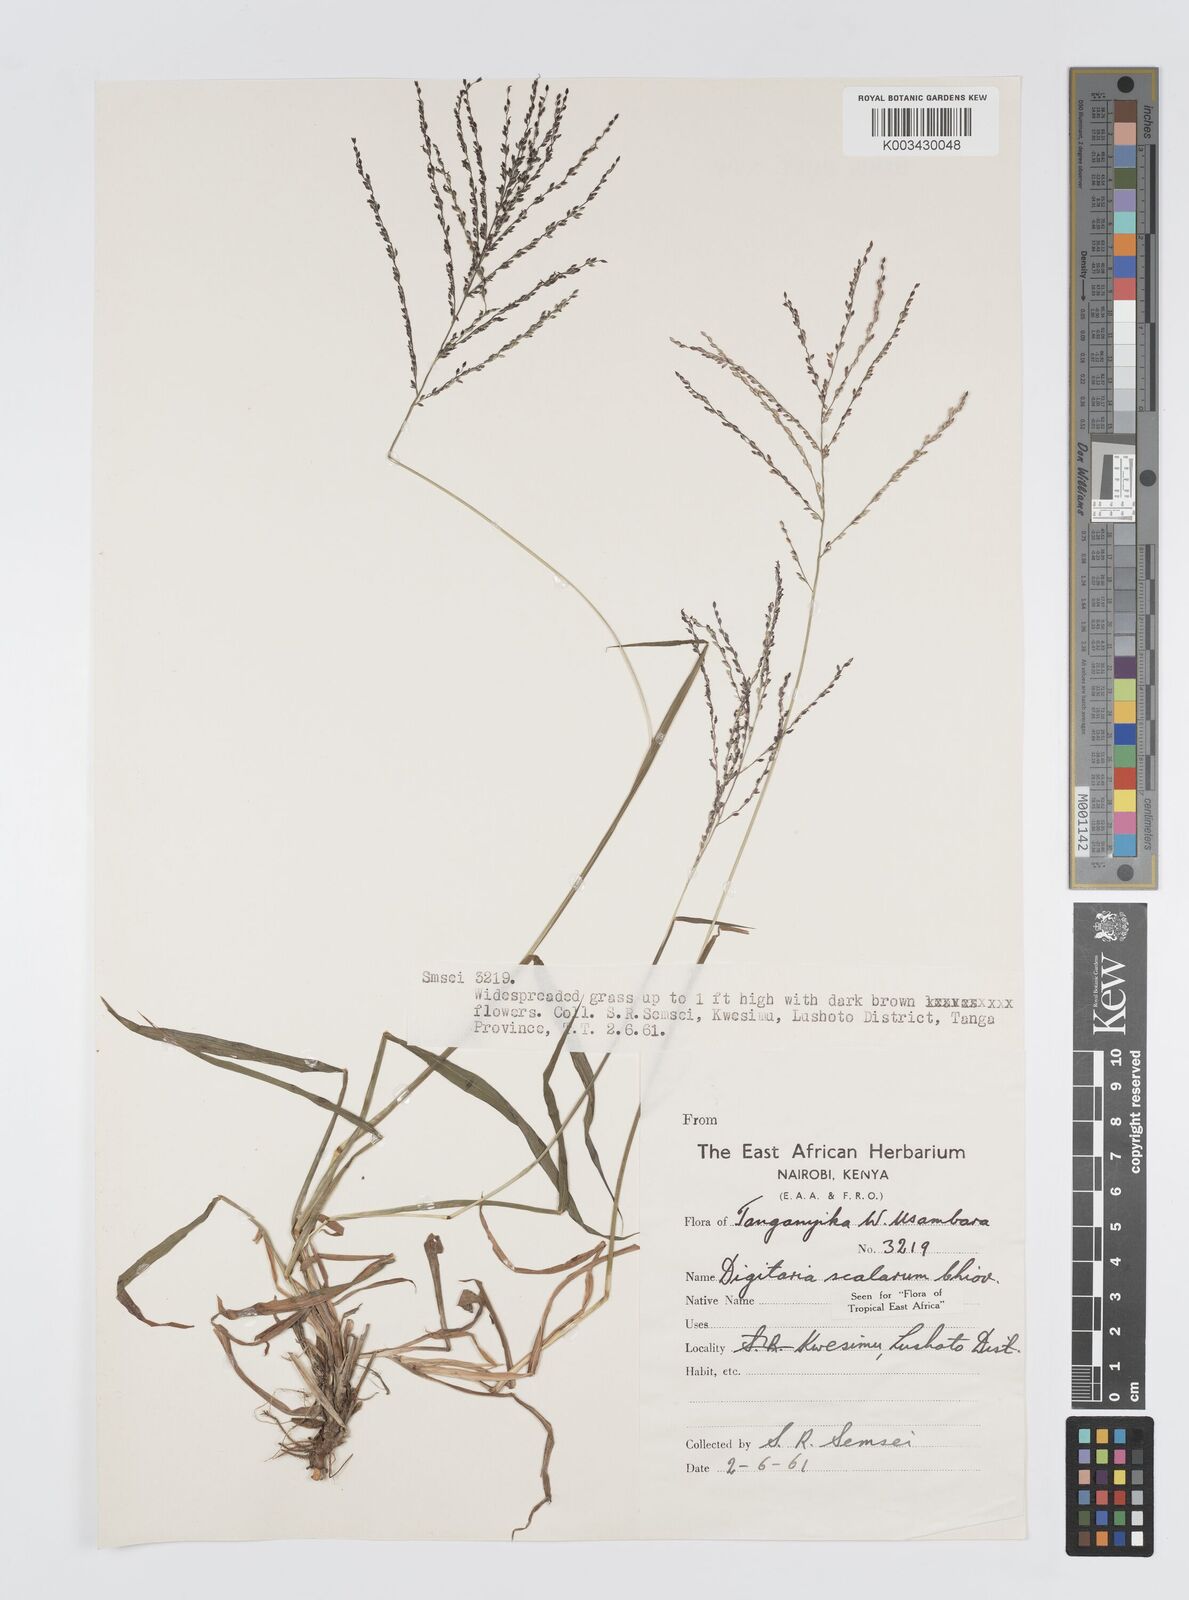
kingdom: Plantae
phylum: Tracheophyta
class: Liliopsida
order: Poales
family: Poaceae
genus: Digitaria
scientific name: Digitaria abyssinica
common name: African couchgrass
